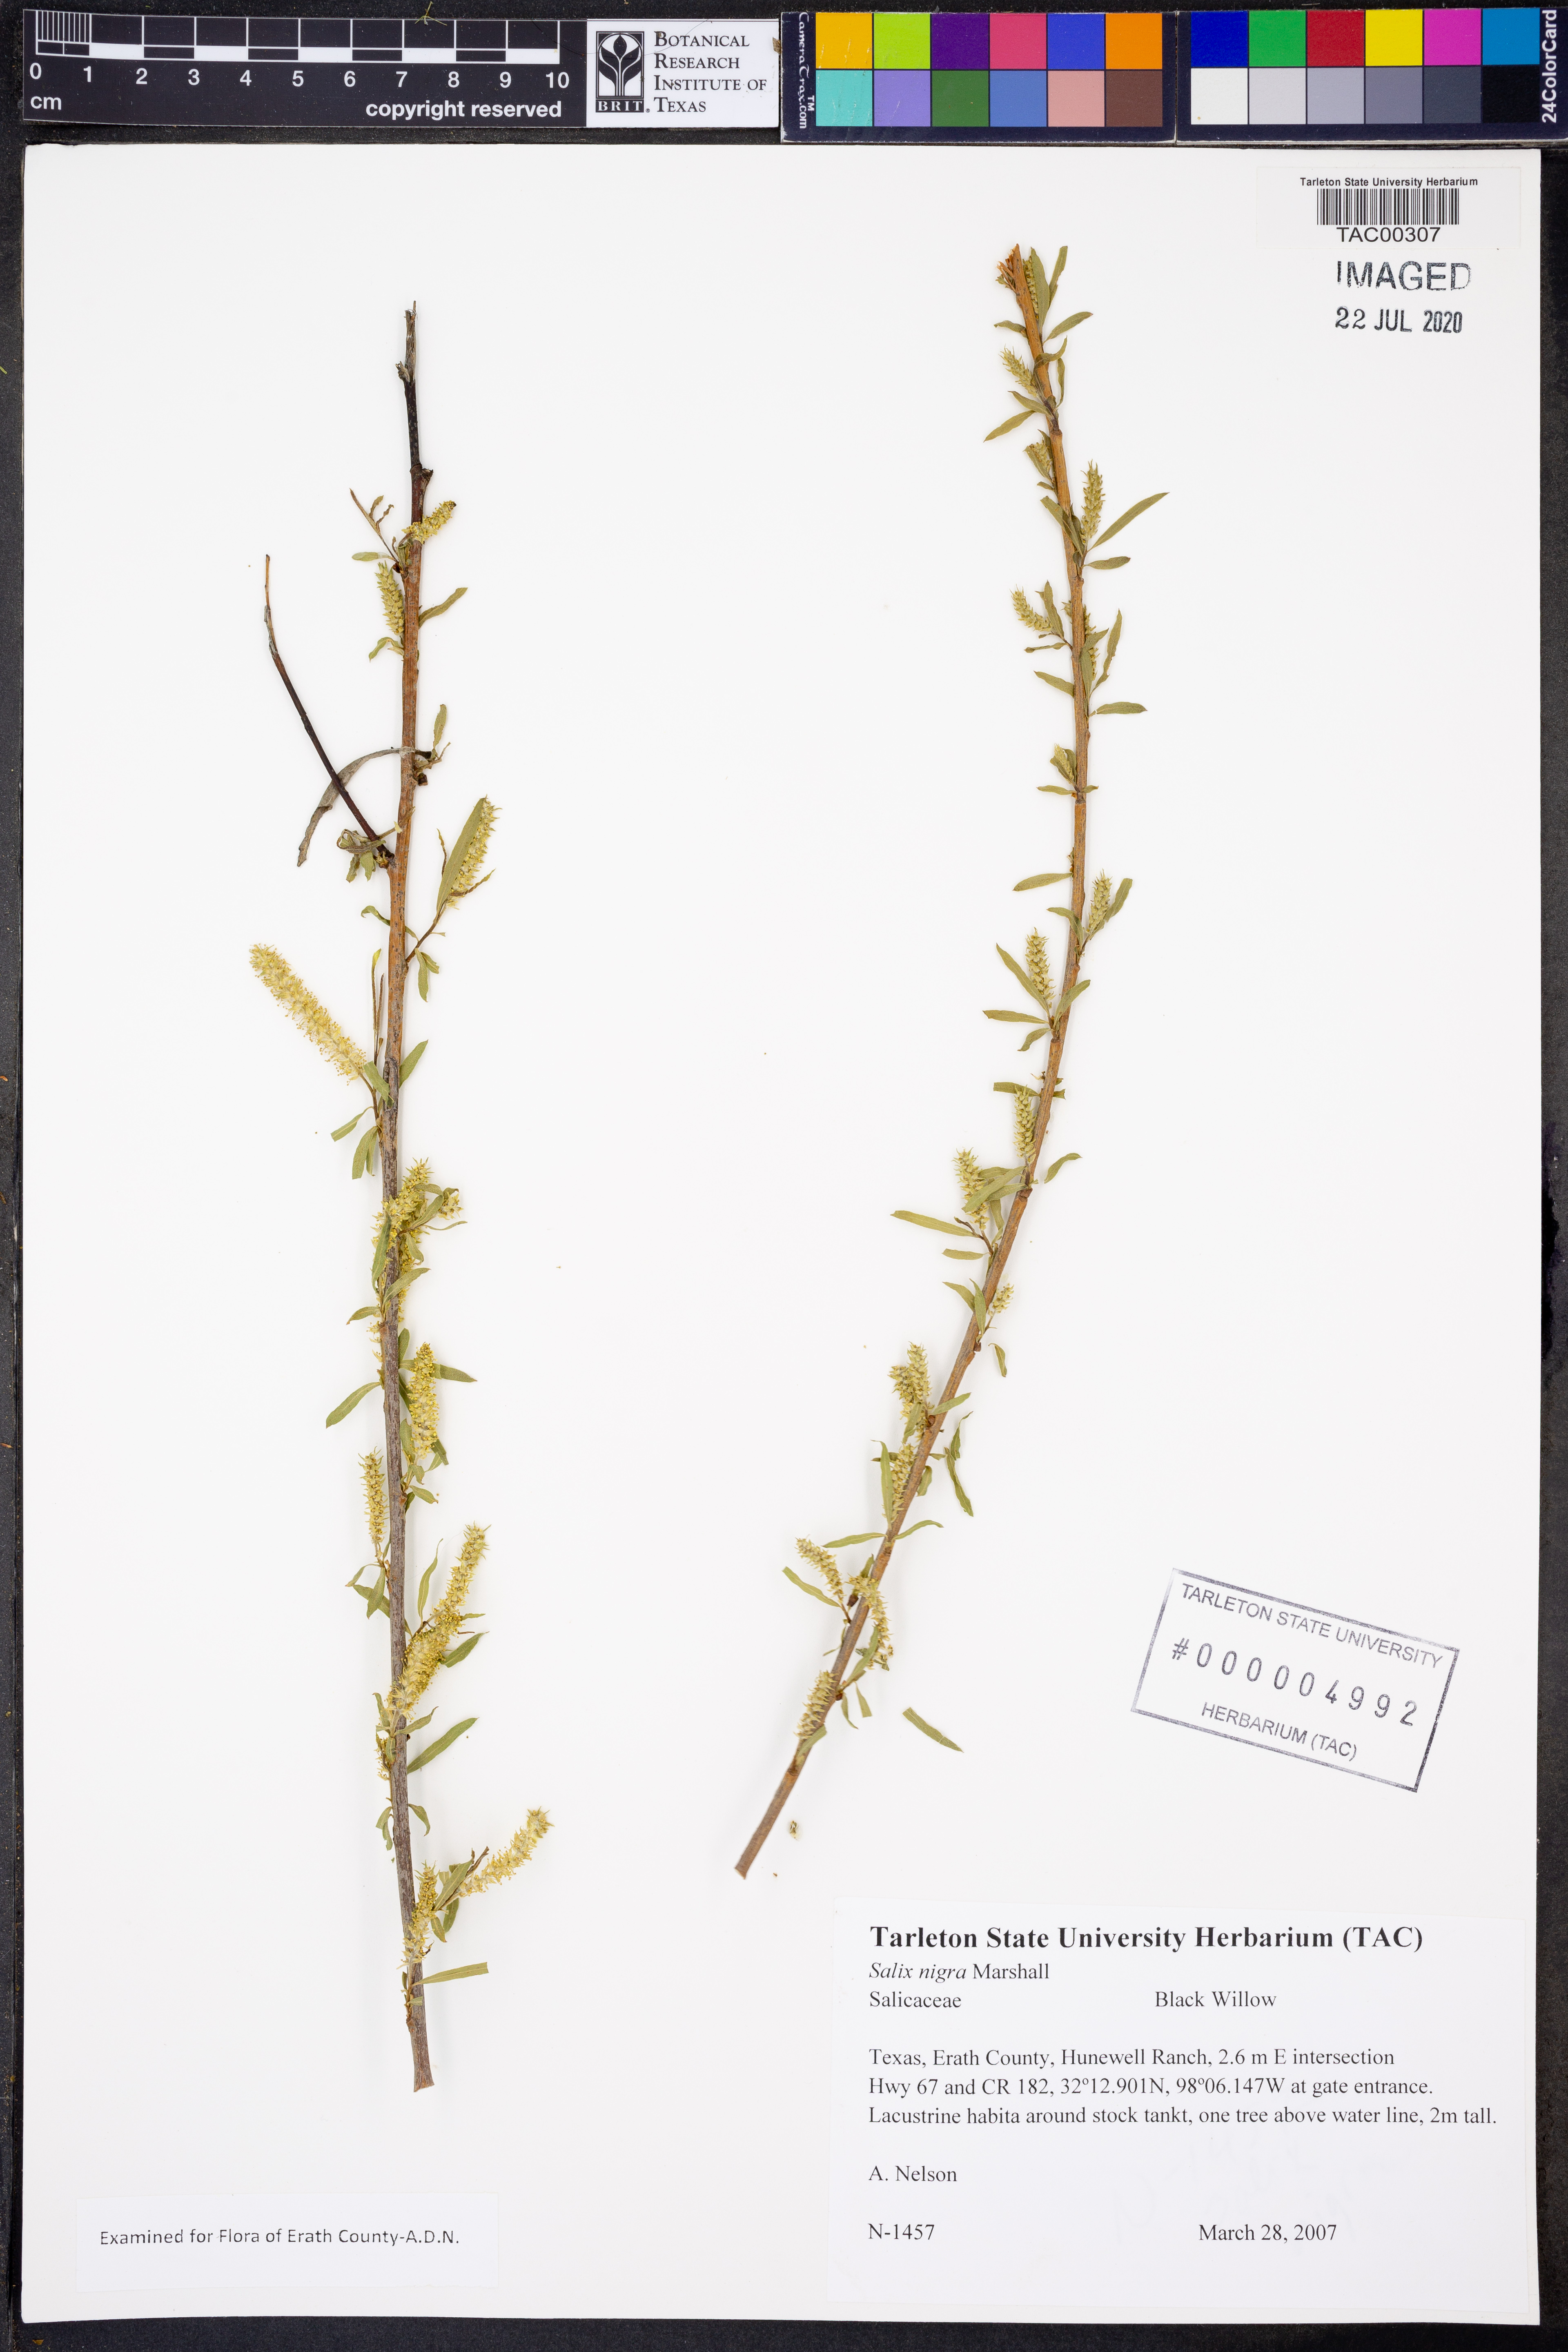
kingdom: Plantae
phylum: Tracheophyta
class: Magnoliopsida
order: Malpighiales
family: Salicaceae
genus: Salix
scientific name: Salix nigra
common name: Black willow
